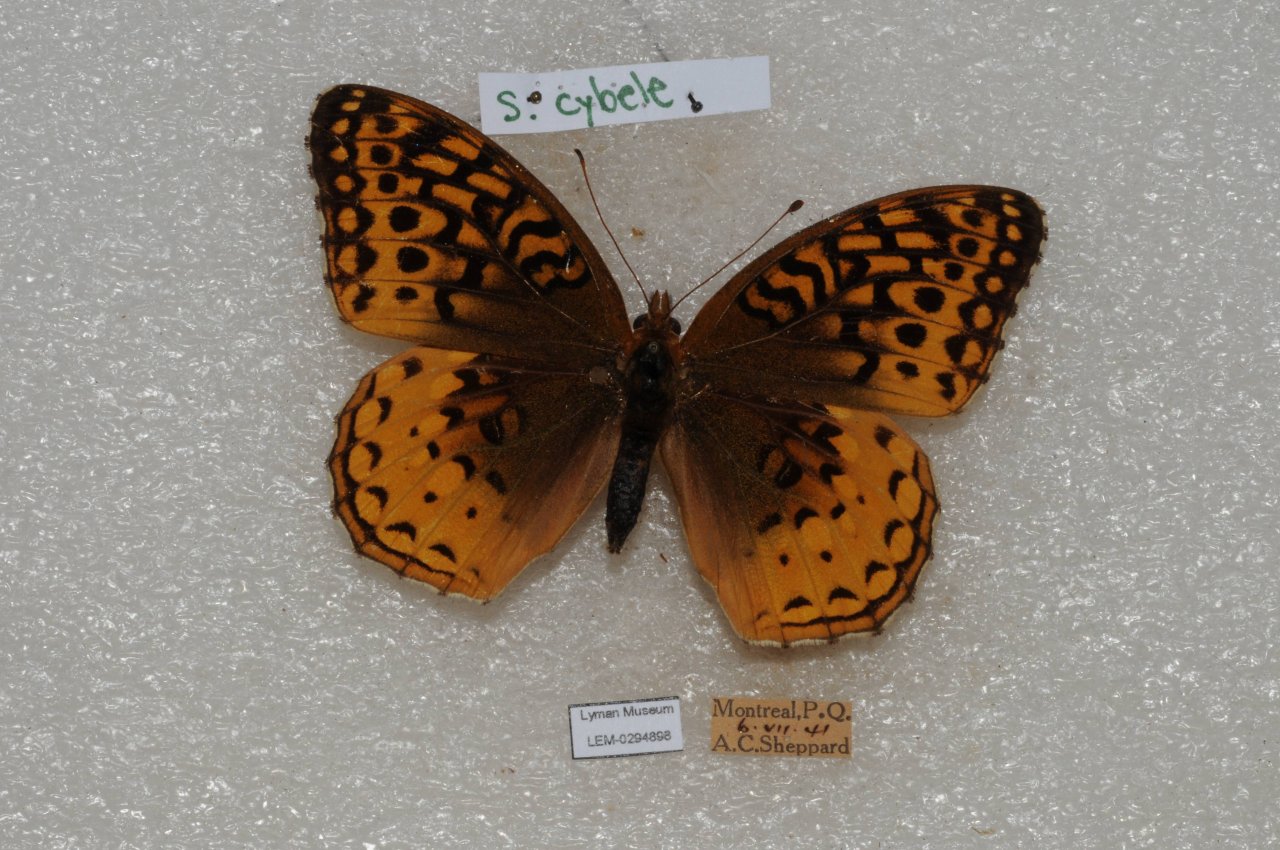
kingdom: Animalia
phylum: Arthropoda
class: Insecta
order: Lepidoptera
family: Nymphalidae
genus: Speyeria
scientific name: Speyeria cybele
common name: Great Spangled Fritillary
